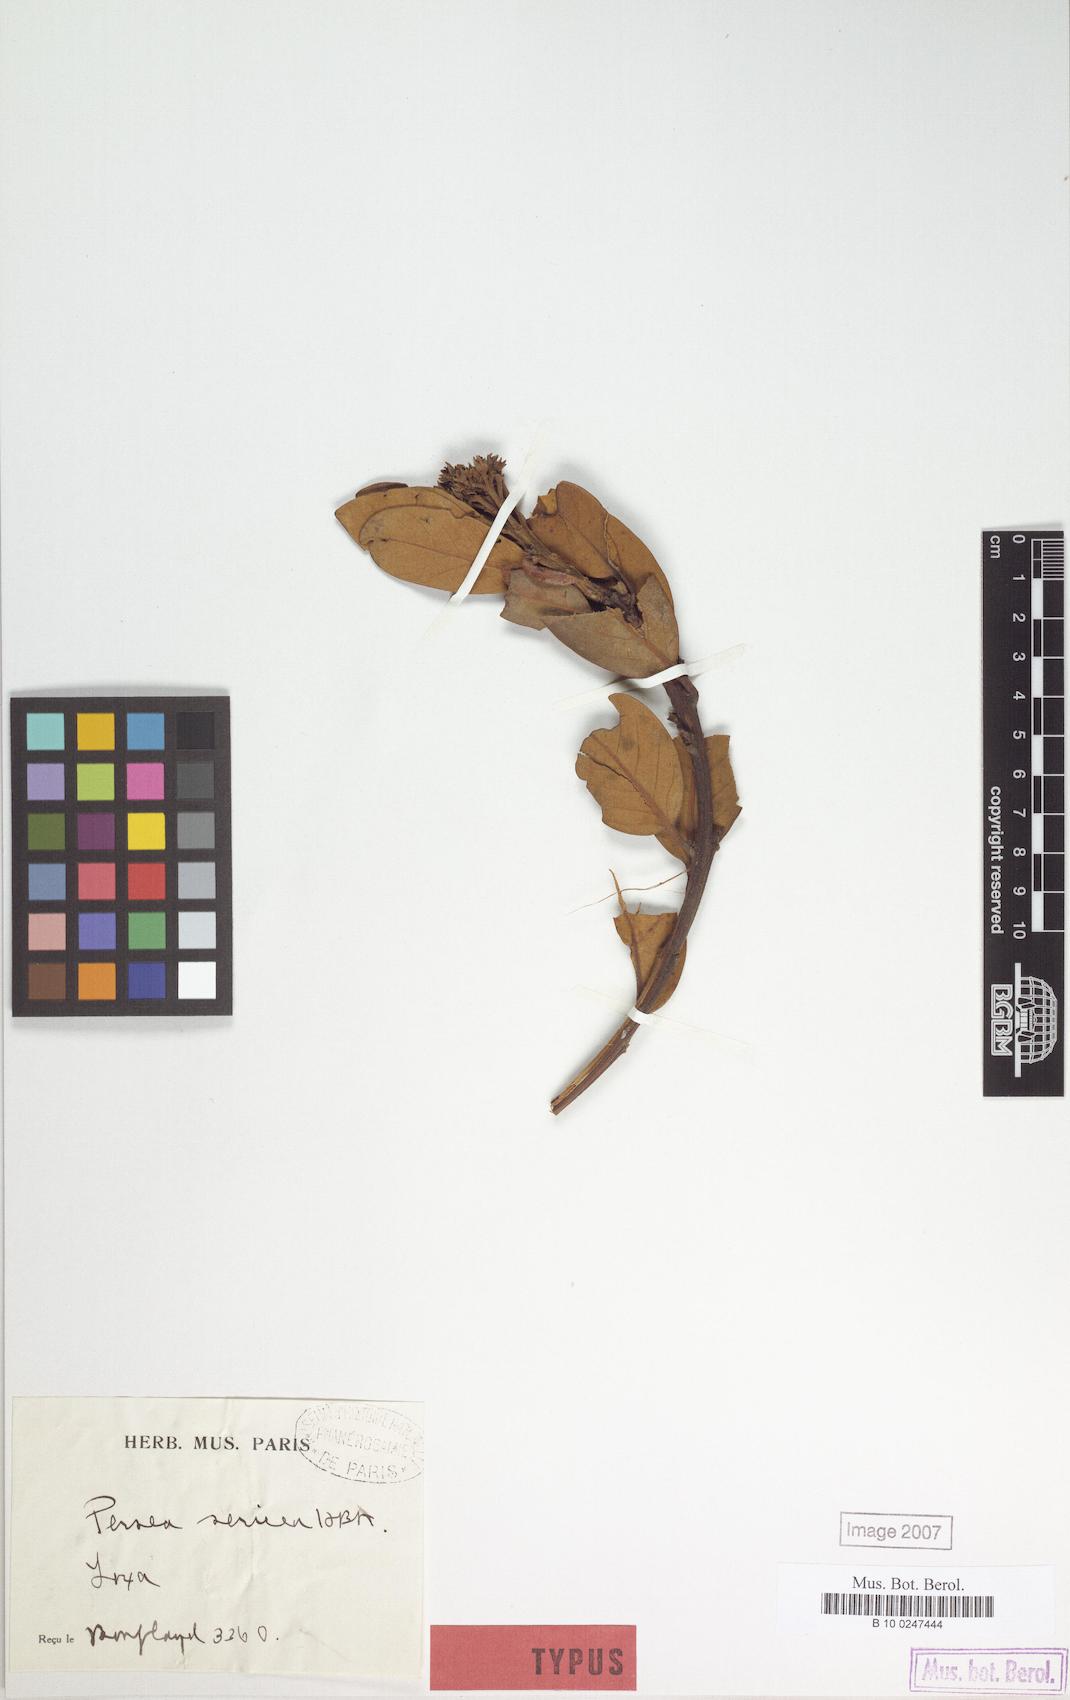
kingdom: Plantae
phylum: Tracheophyta
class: Magnoliopsida
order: Laurales
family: Lauraceae
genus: Persea
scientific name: Persea sericea
